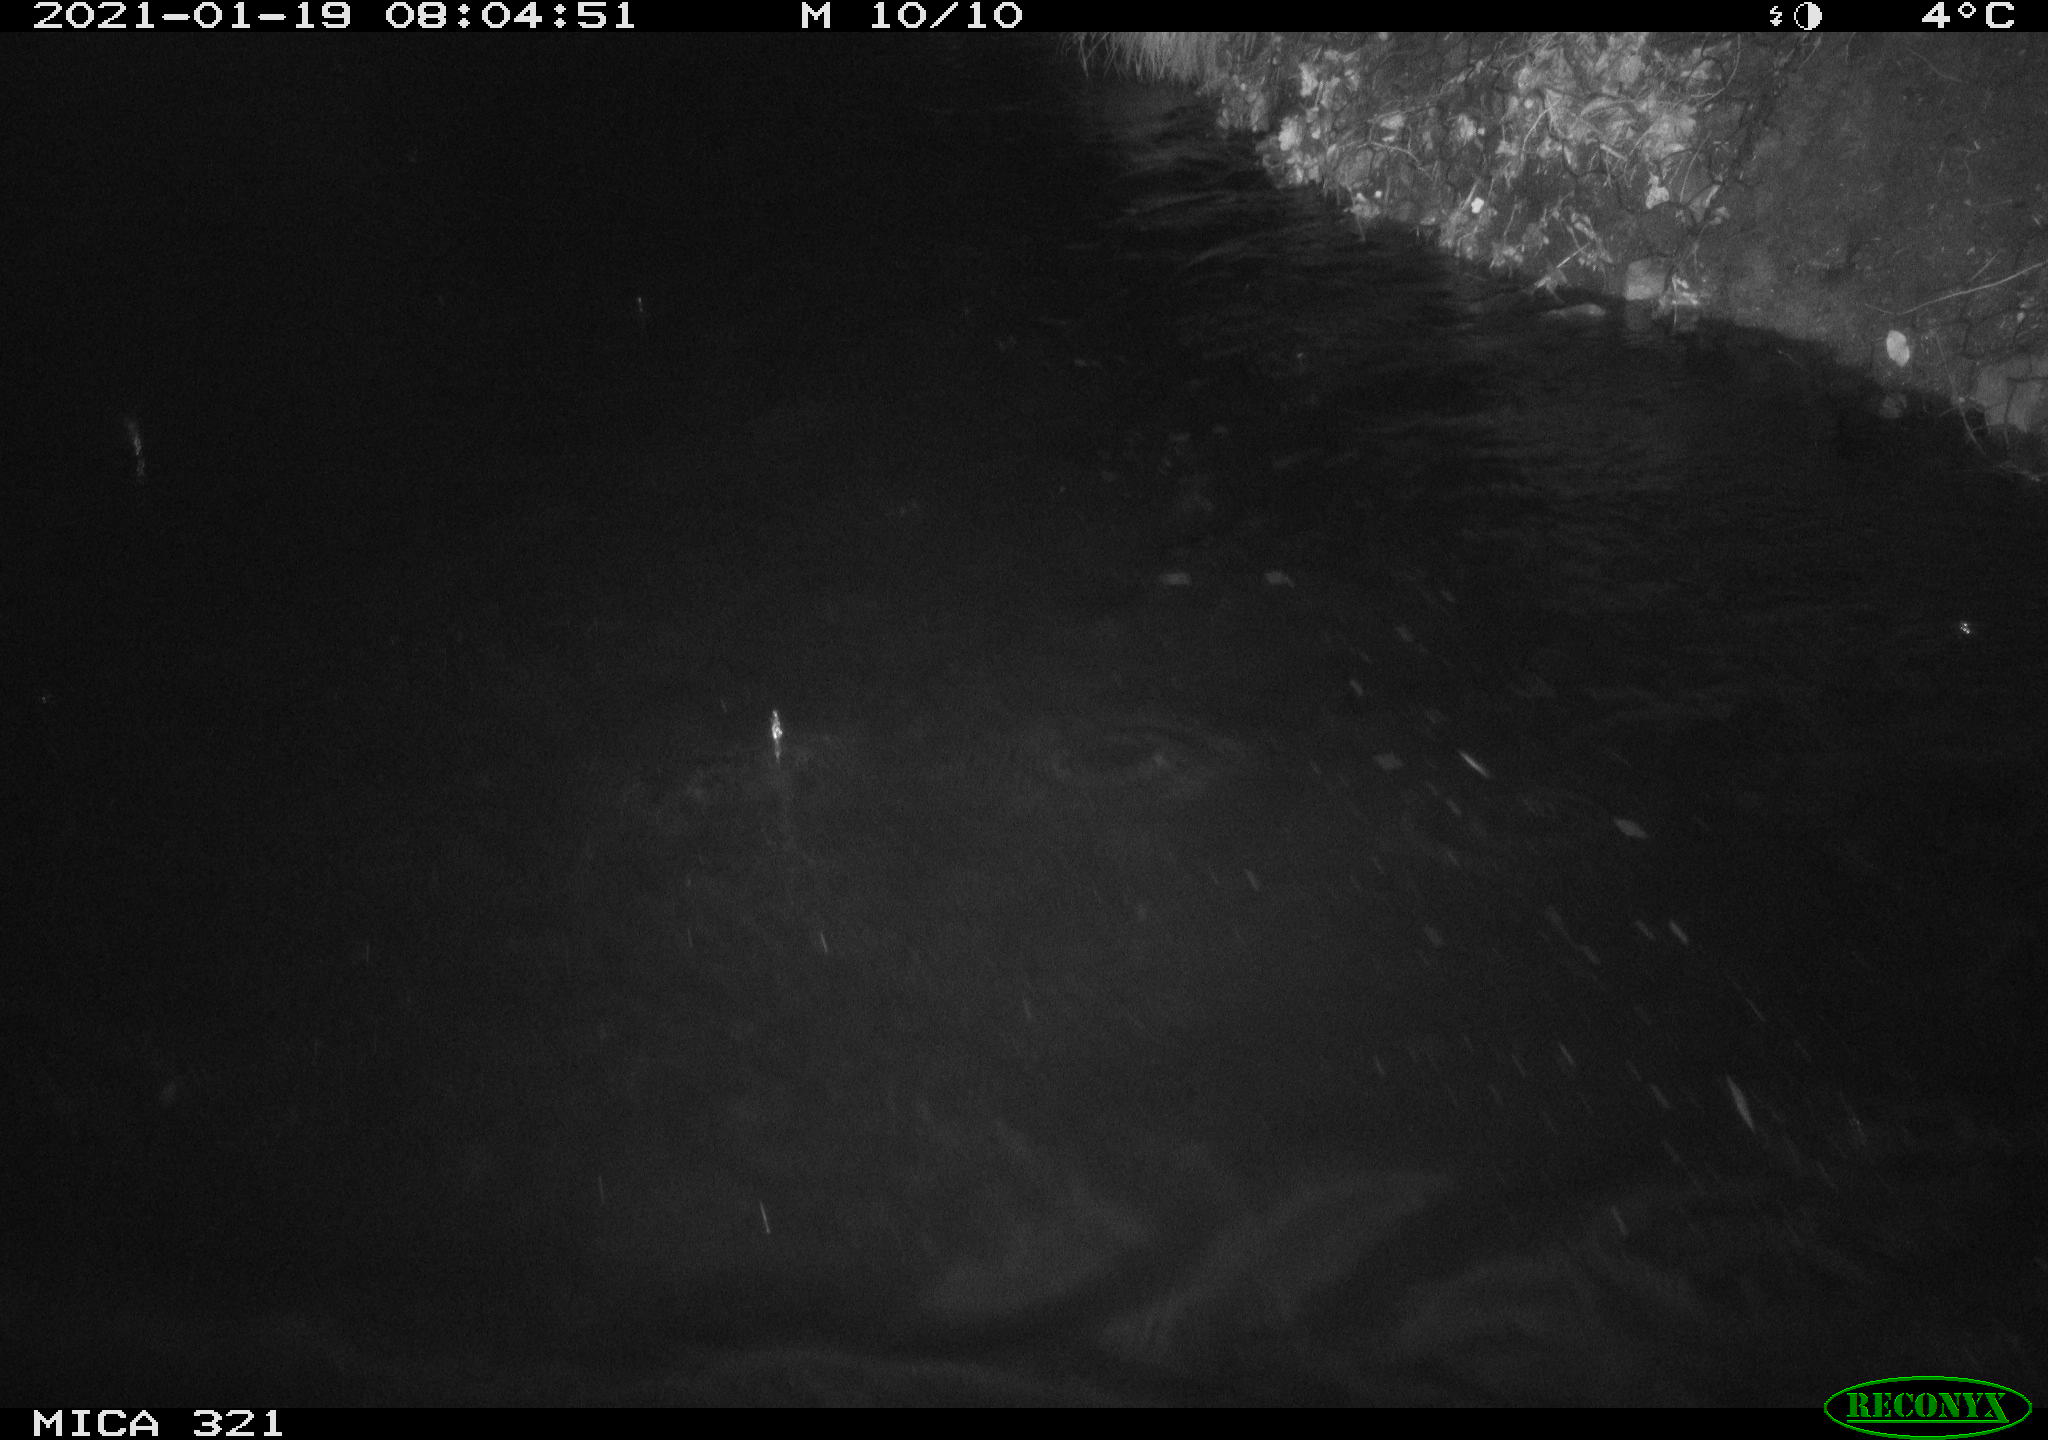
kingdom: Animalia
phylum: Chordata
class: Aves
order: Anseriformes
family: Anatidae
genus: Anas
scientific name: Anas platyrhynchos
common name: Mallard
